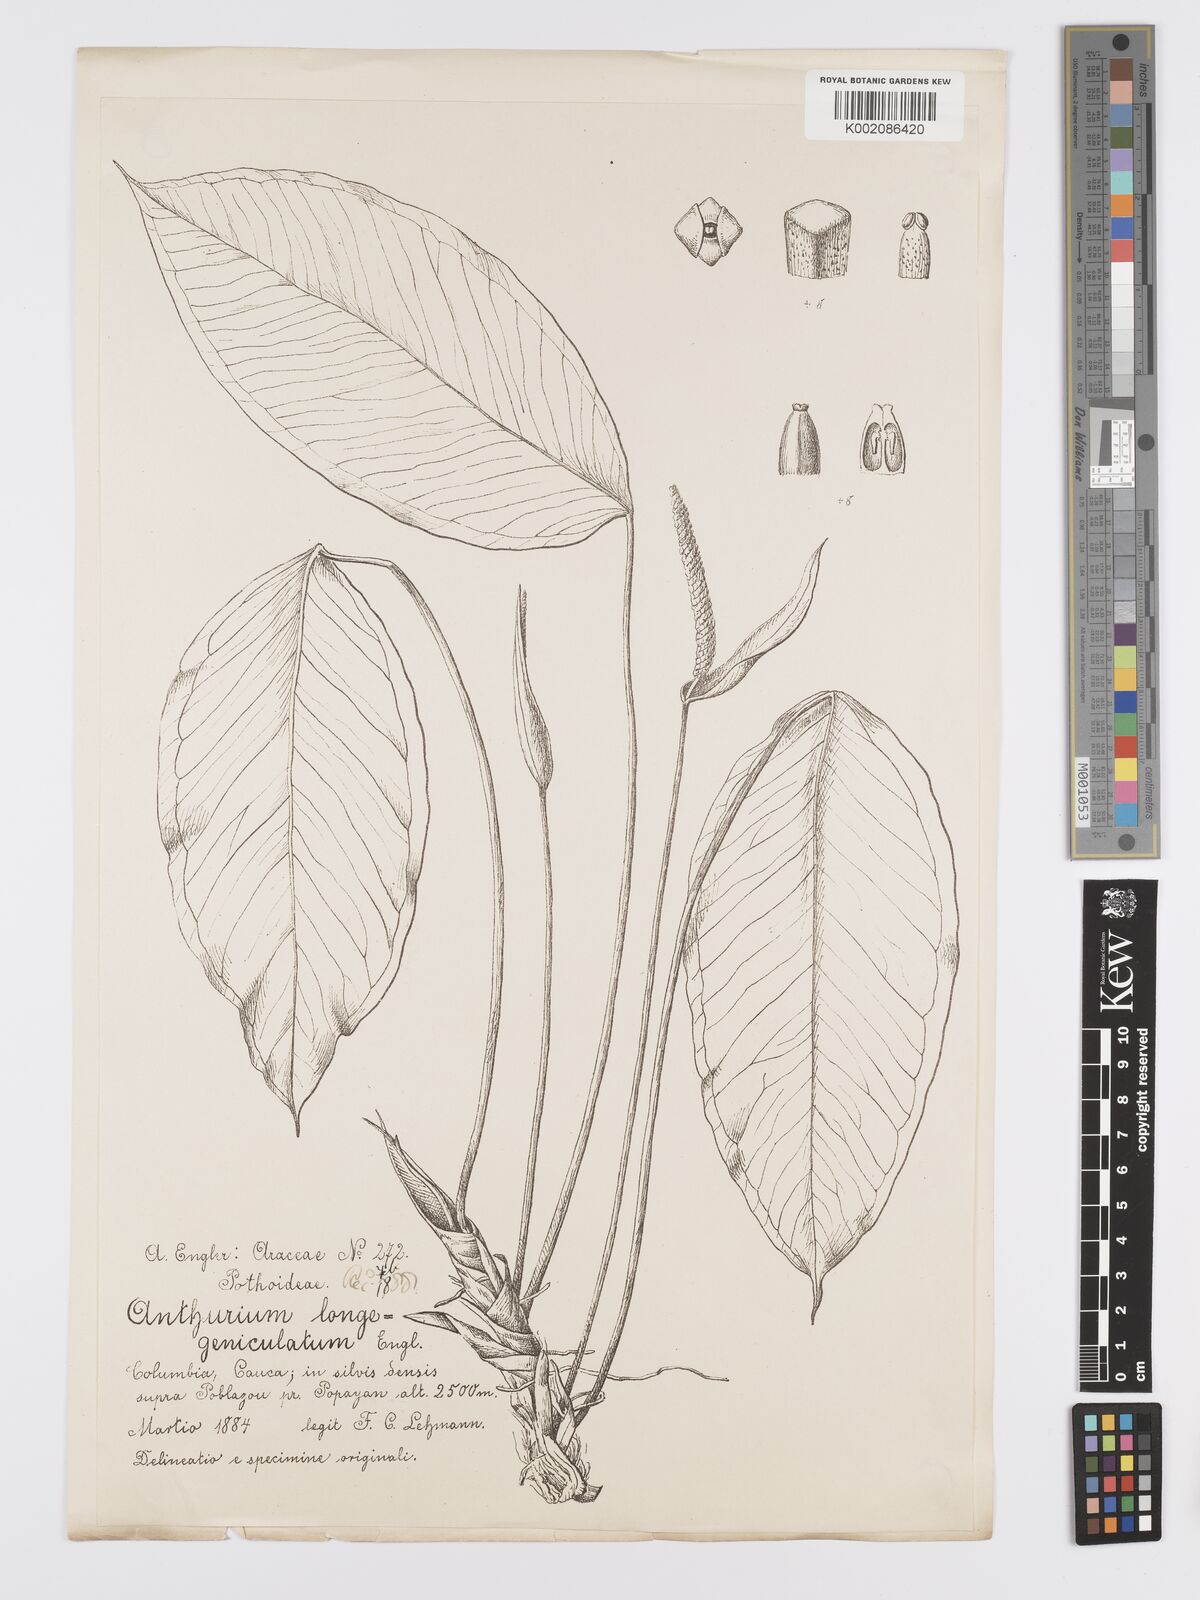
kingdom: Plantae
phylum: Tracheophyta
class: Liliopsida
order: Alismatales
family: Araceae
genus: Anthurium
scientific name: Anthurium longegeniculatum
